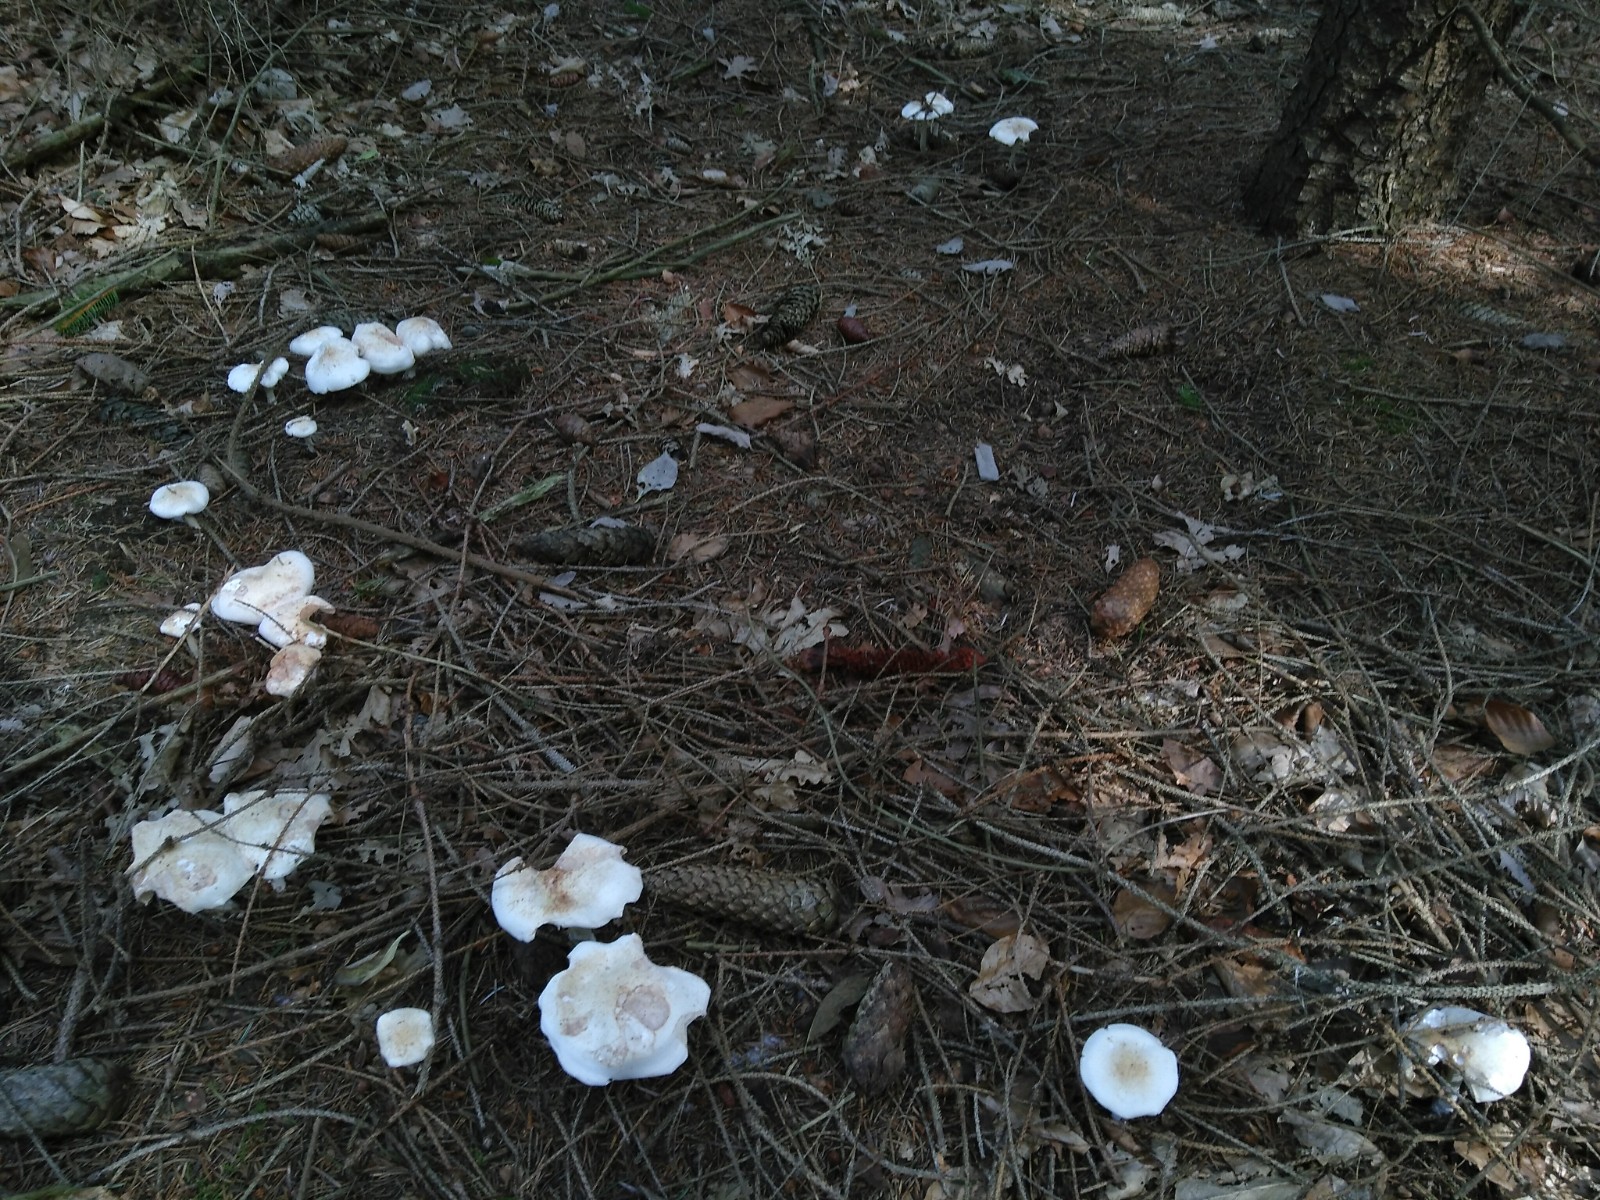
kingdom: Fungi
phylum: Basidiomycota
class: Agaricomycetes
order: Agaricales
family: Omphalotaceae
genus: Rhodocollybia
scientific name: Rhodocollybia maculata
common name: plettet fladhat
